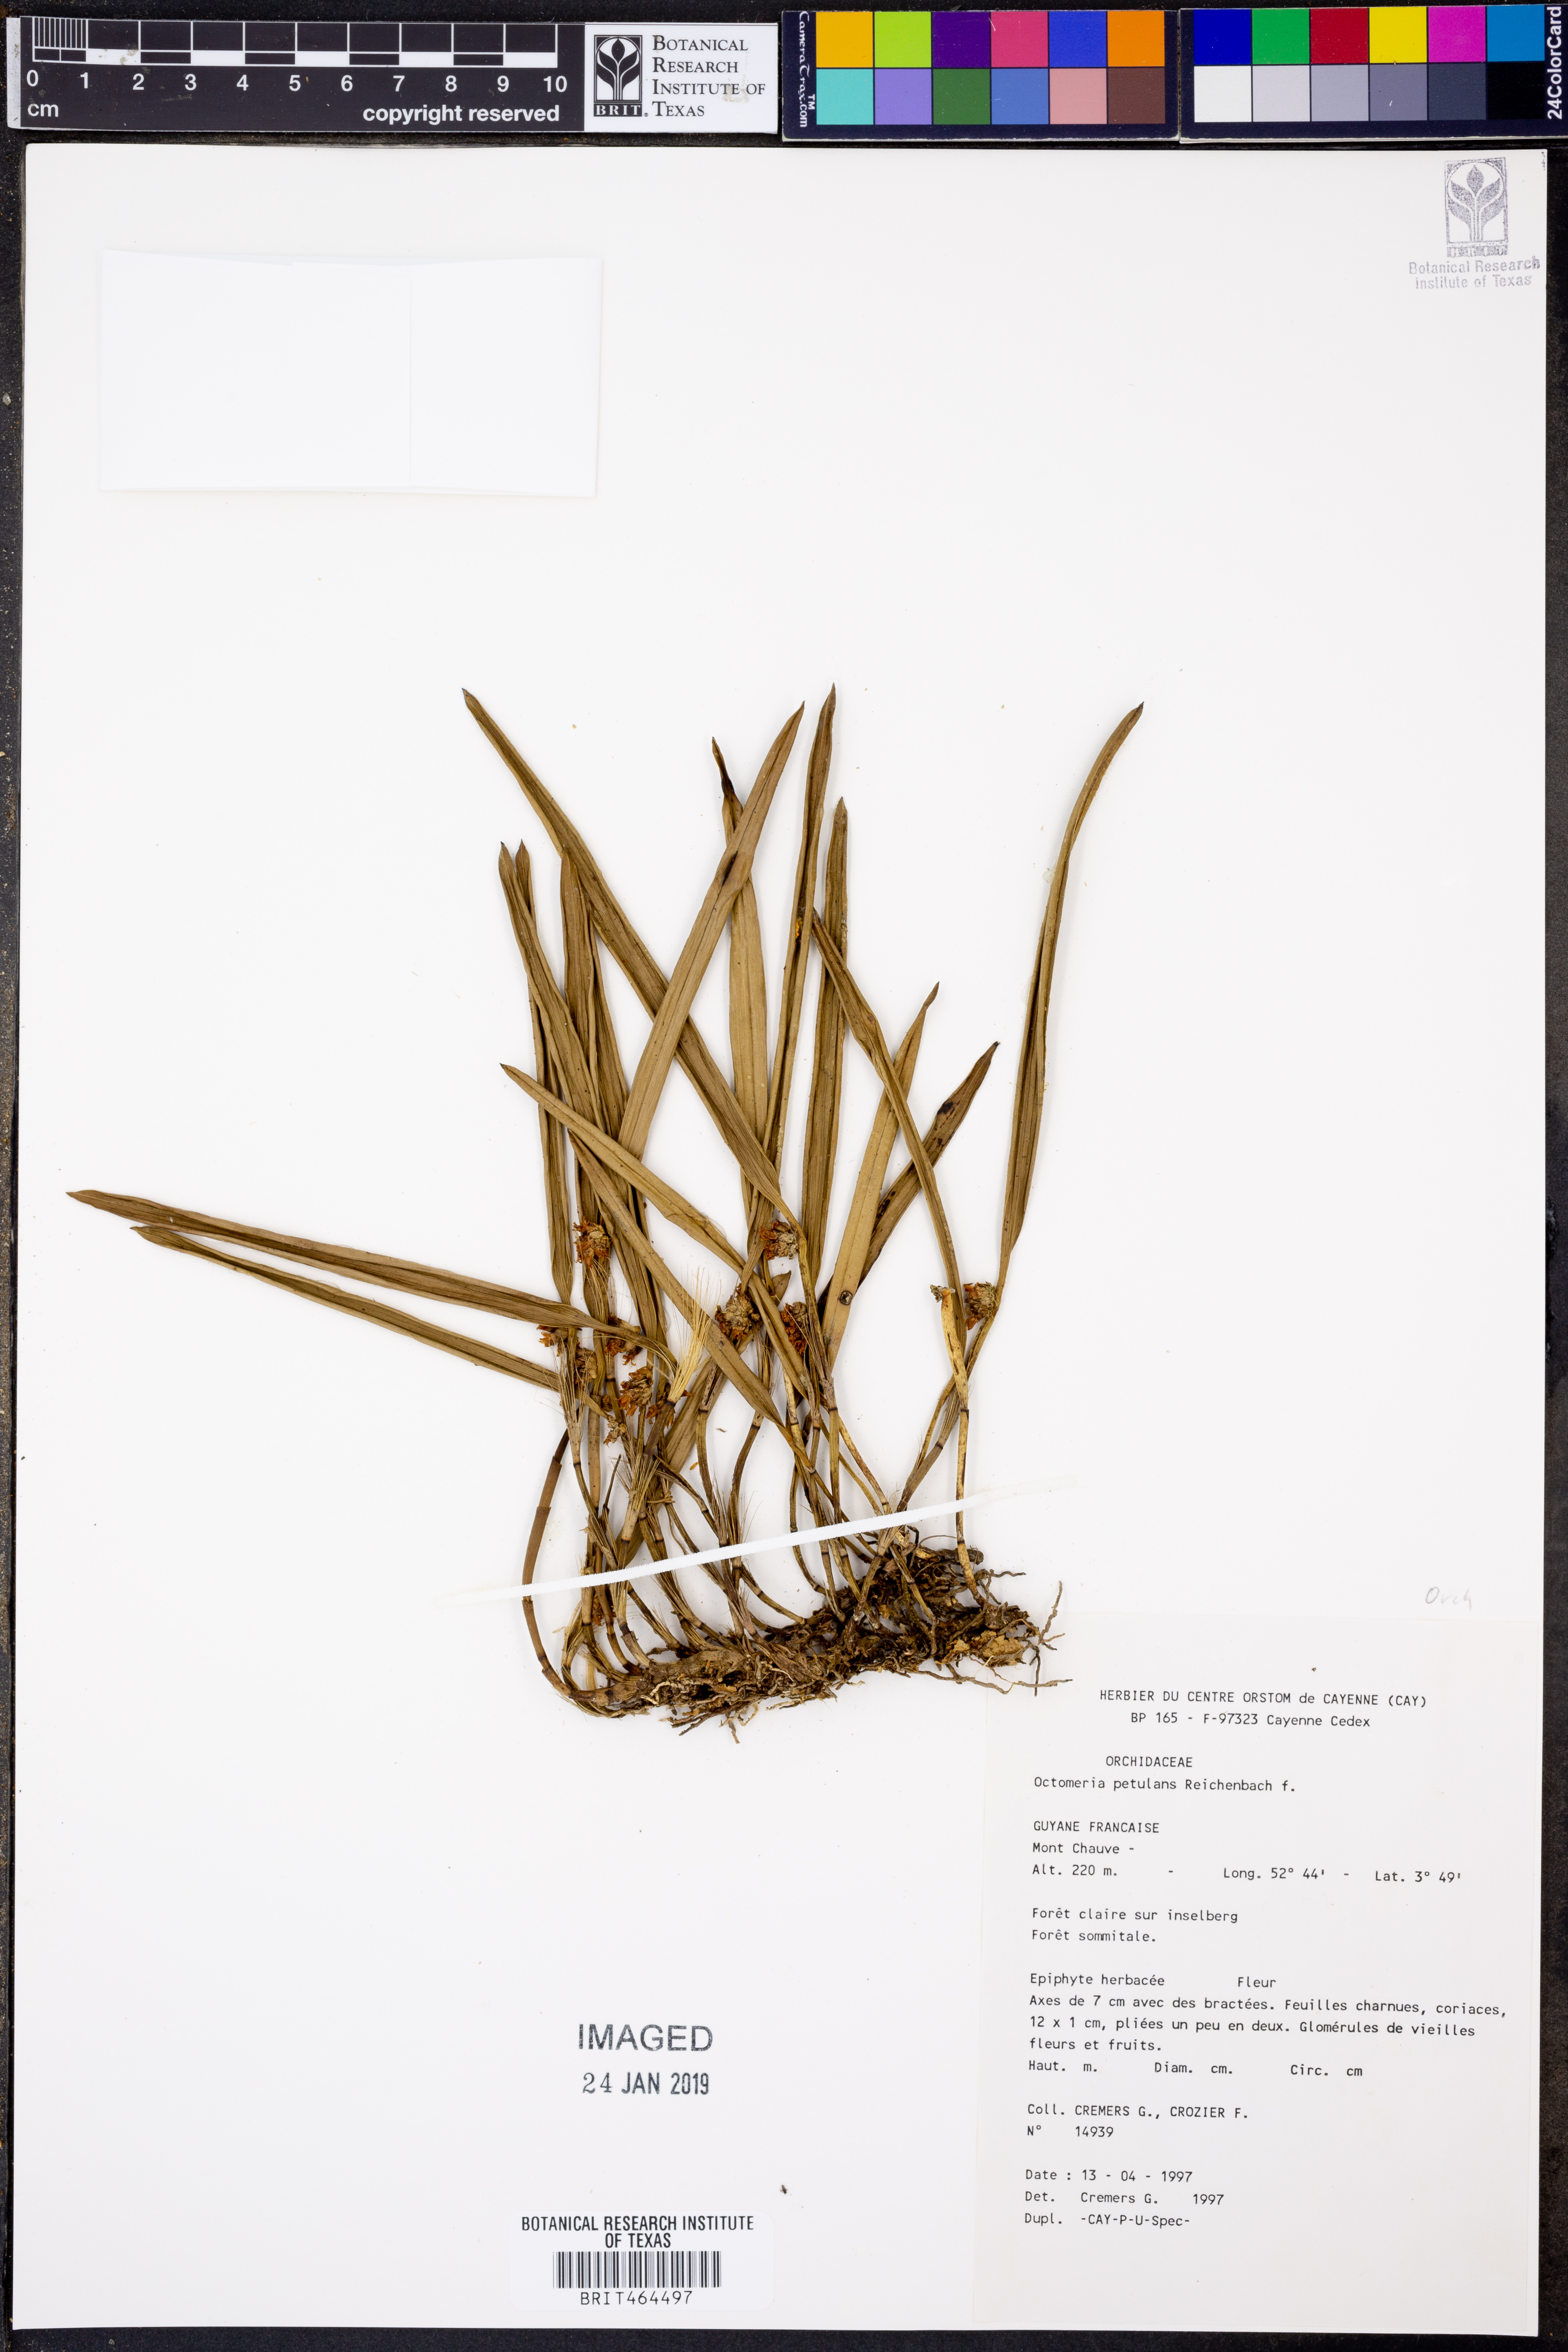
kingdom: Plantae
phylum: Tracheophyta
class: Liliopsida
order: Asparagales
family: Orchidaceae
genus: Octomeria
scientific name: Octomeria surinamensis
